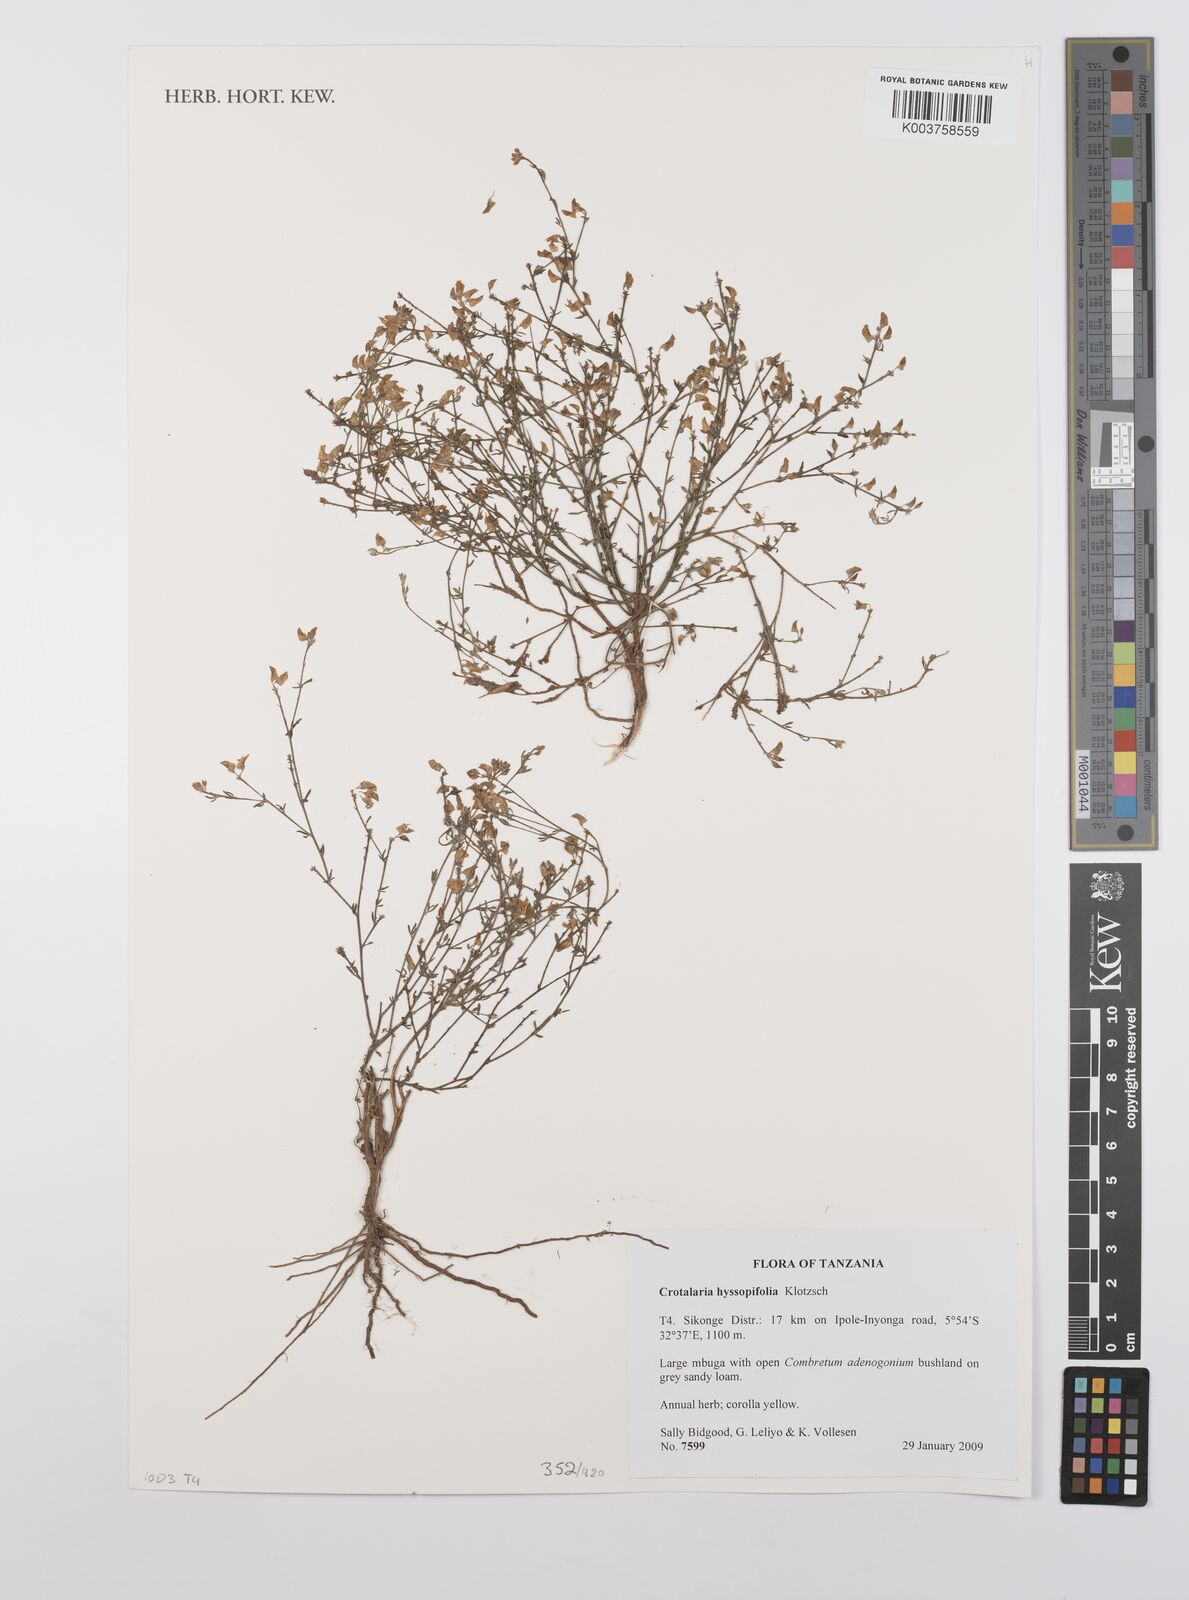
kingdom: Plantae
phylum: Tracheophyta
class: Magnoliopsida
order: Fabales
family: Fabaceae
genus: Crotalaria
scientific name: Crotalaria hyssopifolia
